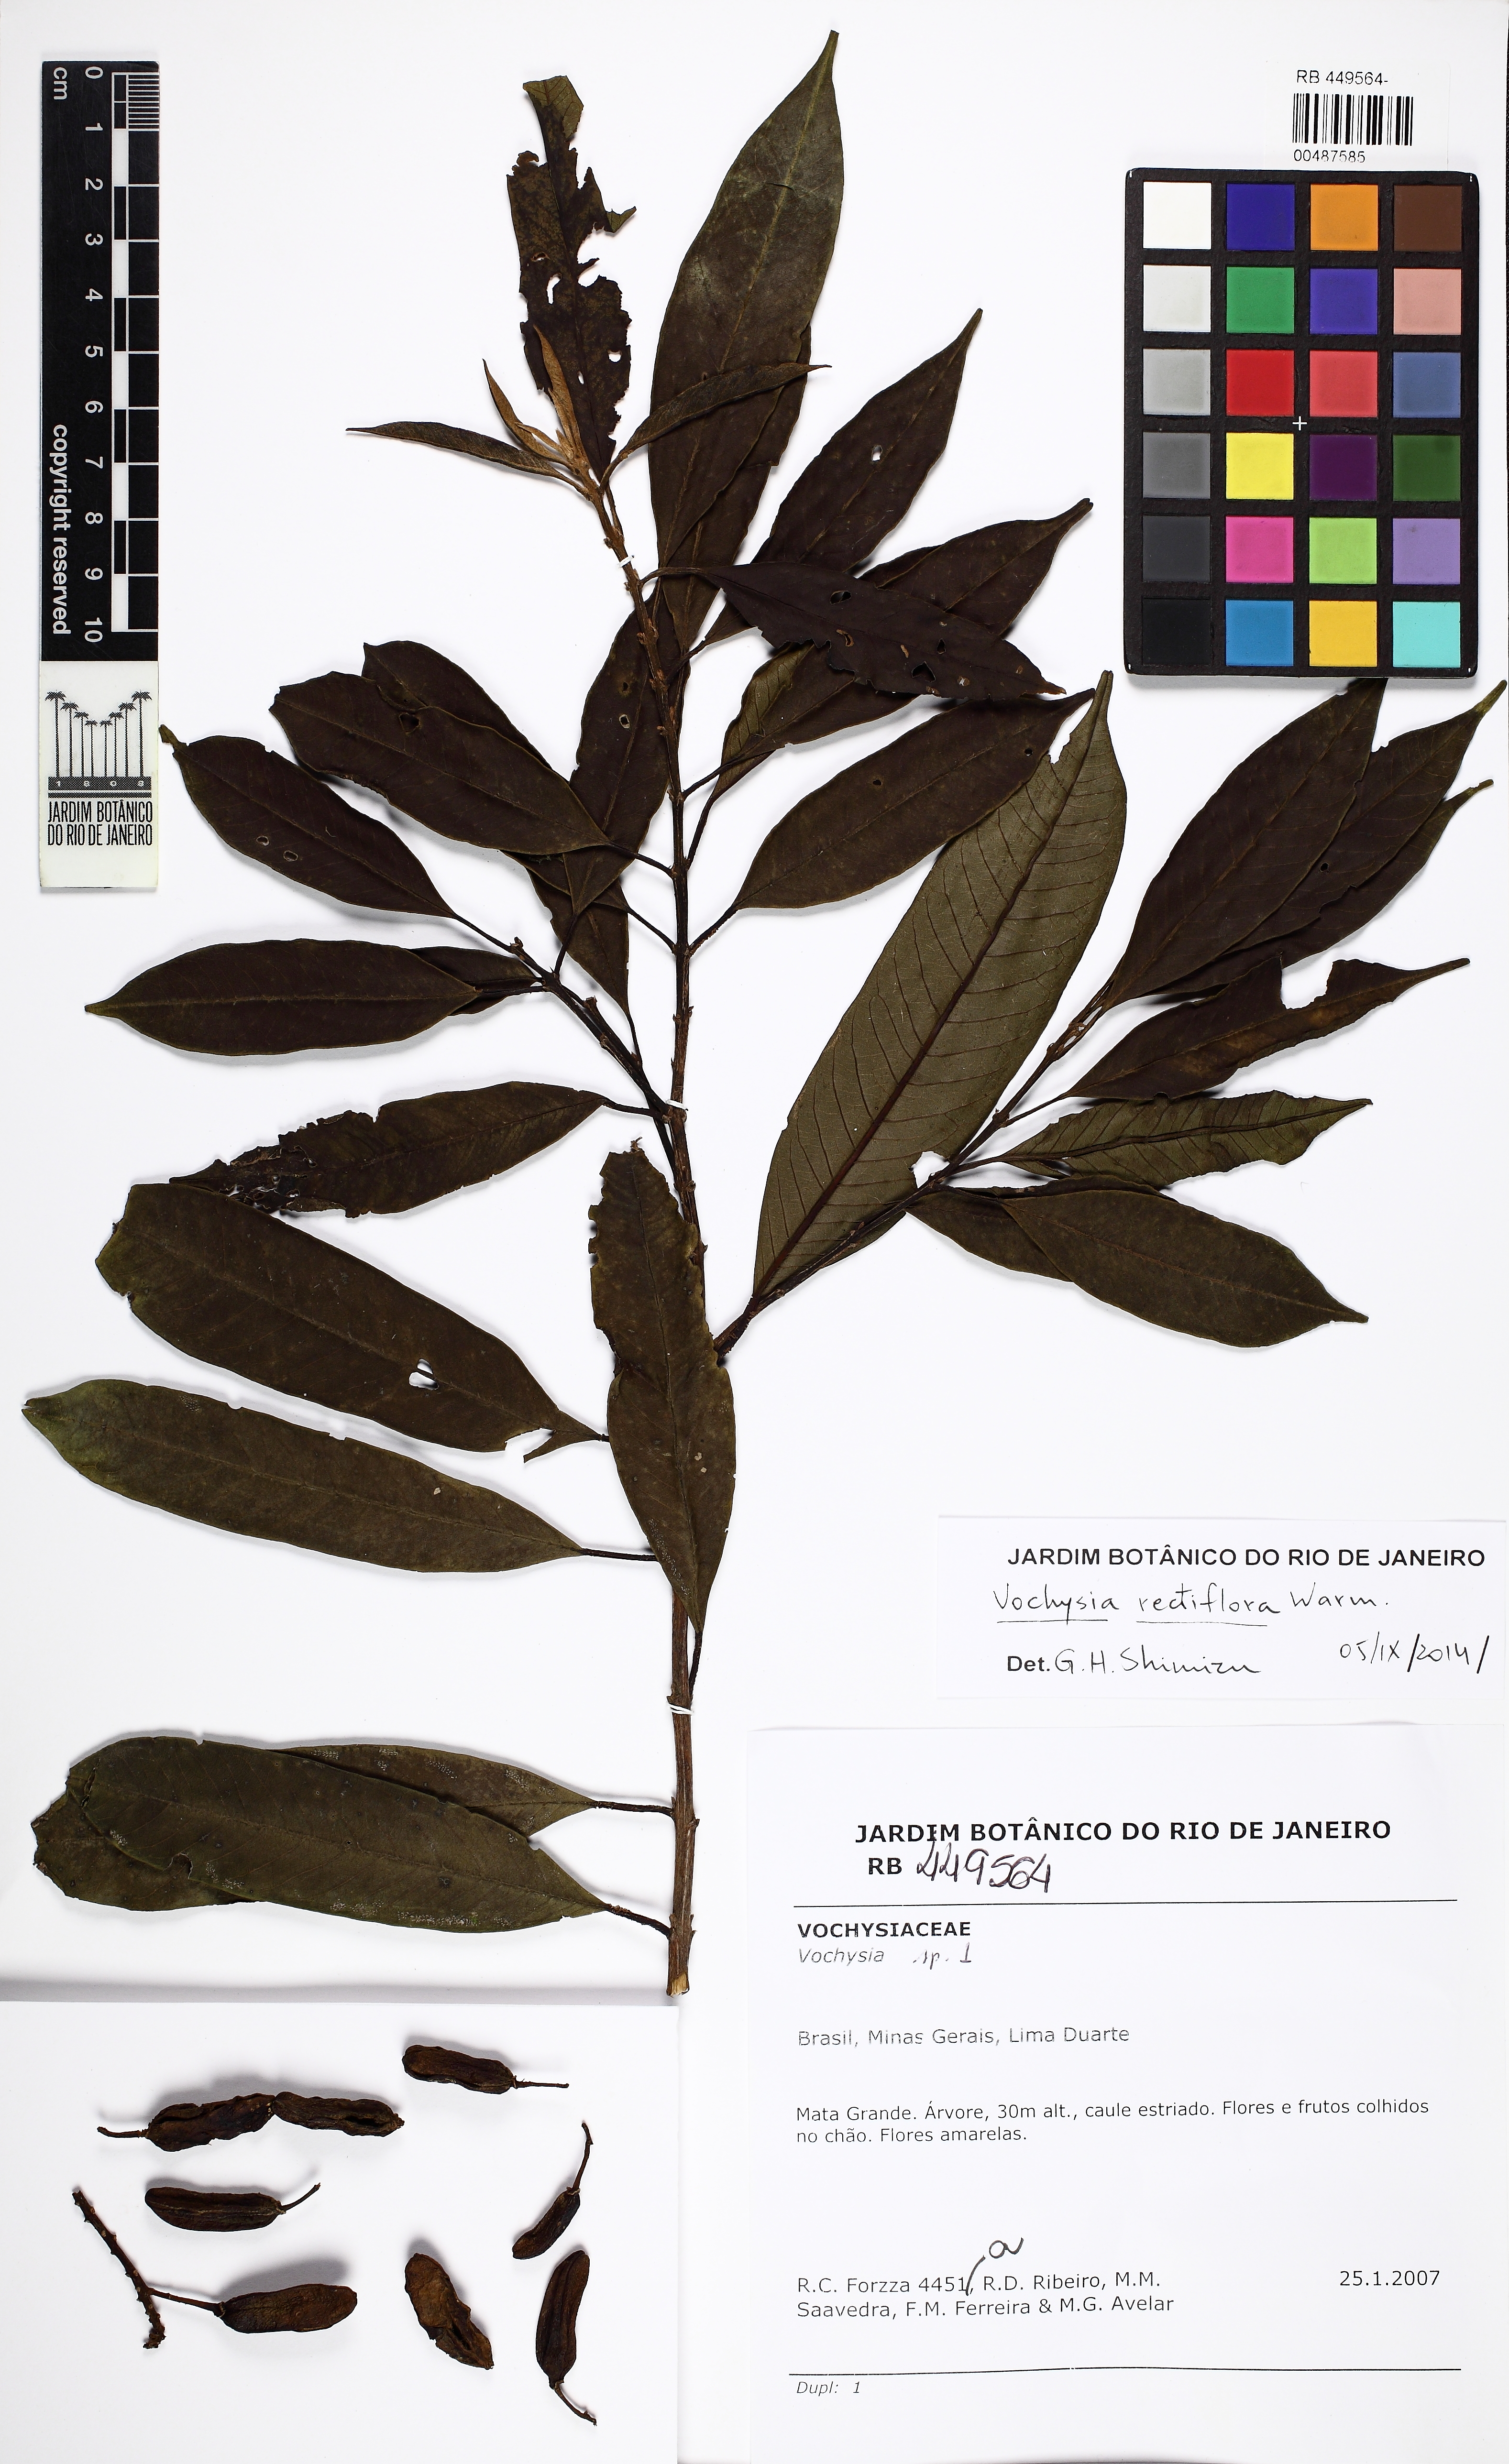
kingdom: Plantae
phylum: Tracheophyta
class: Magnoliopsida
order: Myrtales
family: Vochysiaceae
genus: Vochysia
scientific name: Vochysia rectiflora
